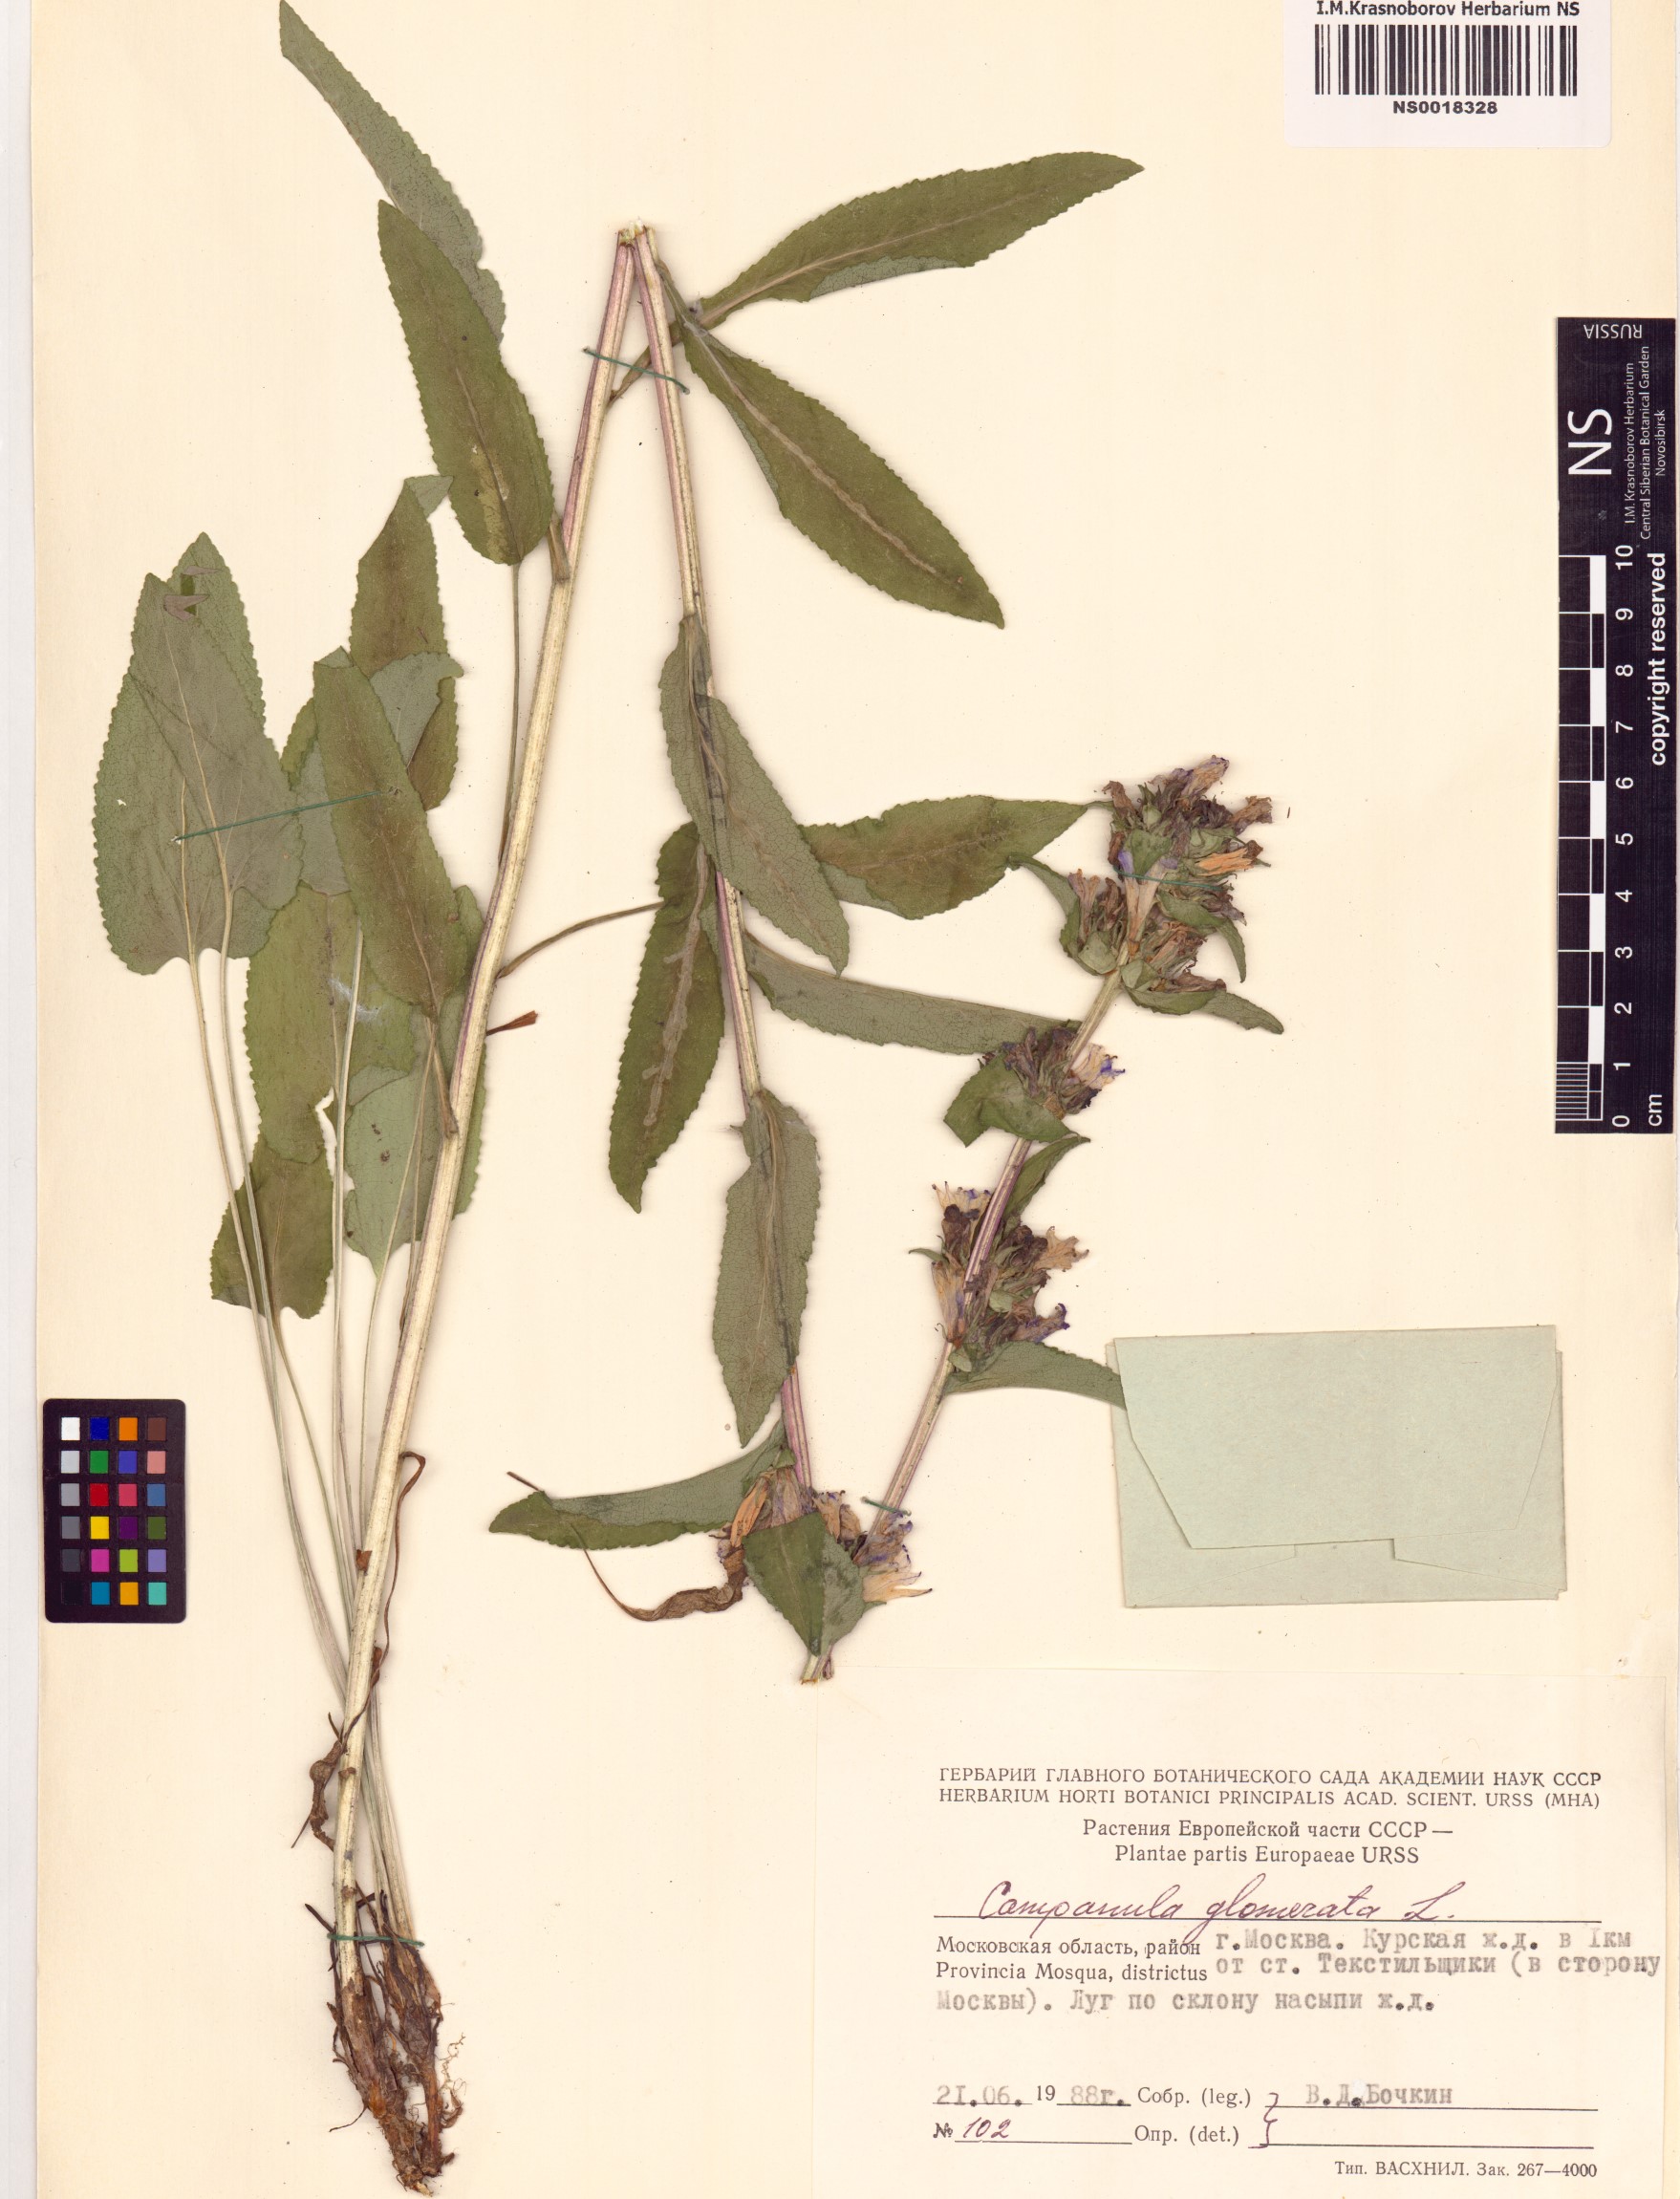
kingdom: Plantae
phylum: Tracheophyta
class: Magnoliopsida
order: Asterales
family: Campanulaceae
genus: Campanula
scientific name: Campanula glomerata
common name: Clustered bellflower
